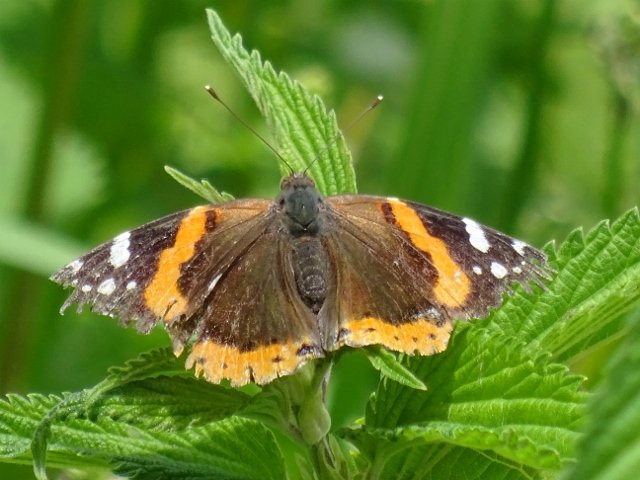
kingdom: Animalia
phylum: Arthropoda
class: Insecta
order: Lepidoptera
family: Nymphalidae
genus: Vanessa
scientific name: Vanessa atalanta
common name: Red Admiral
